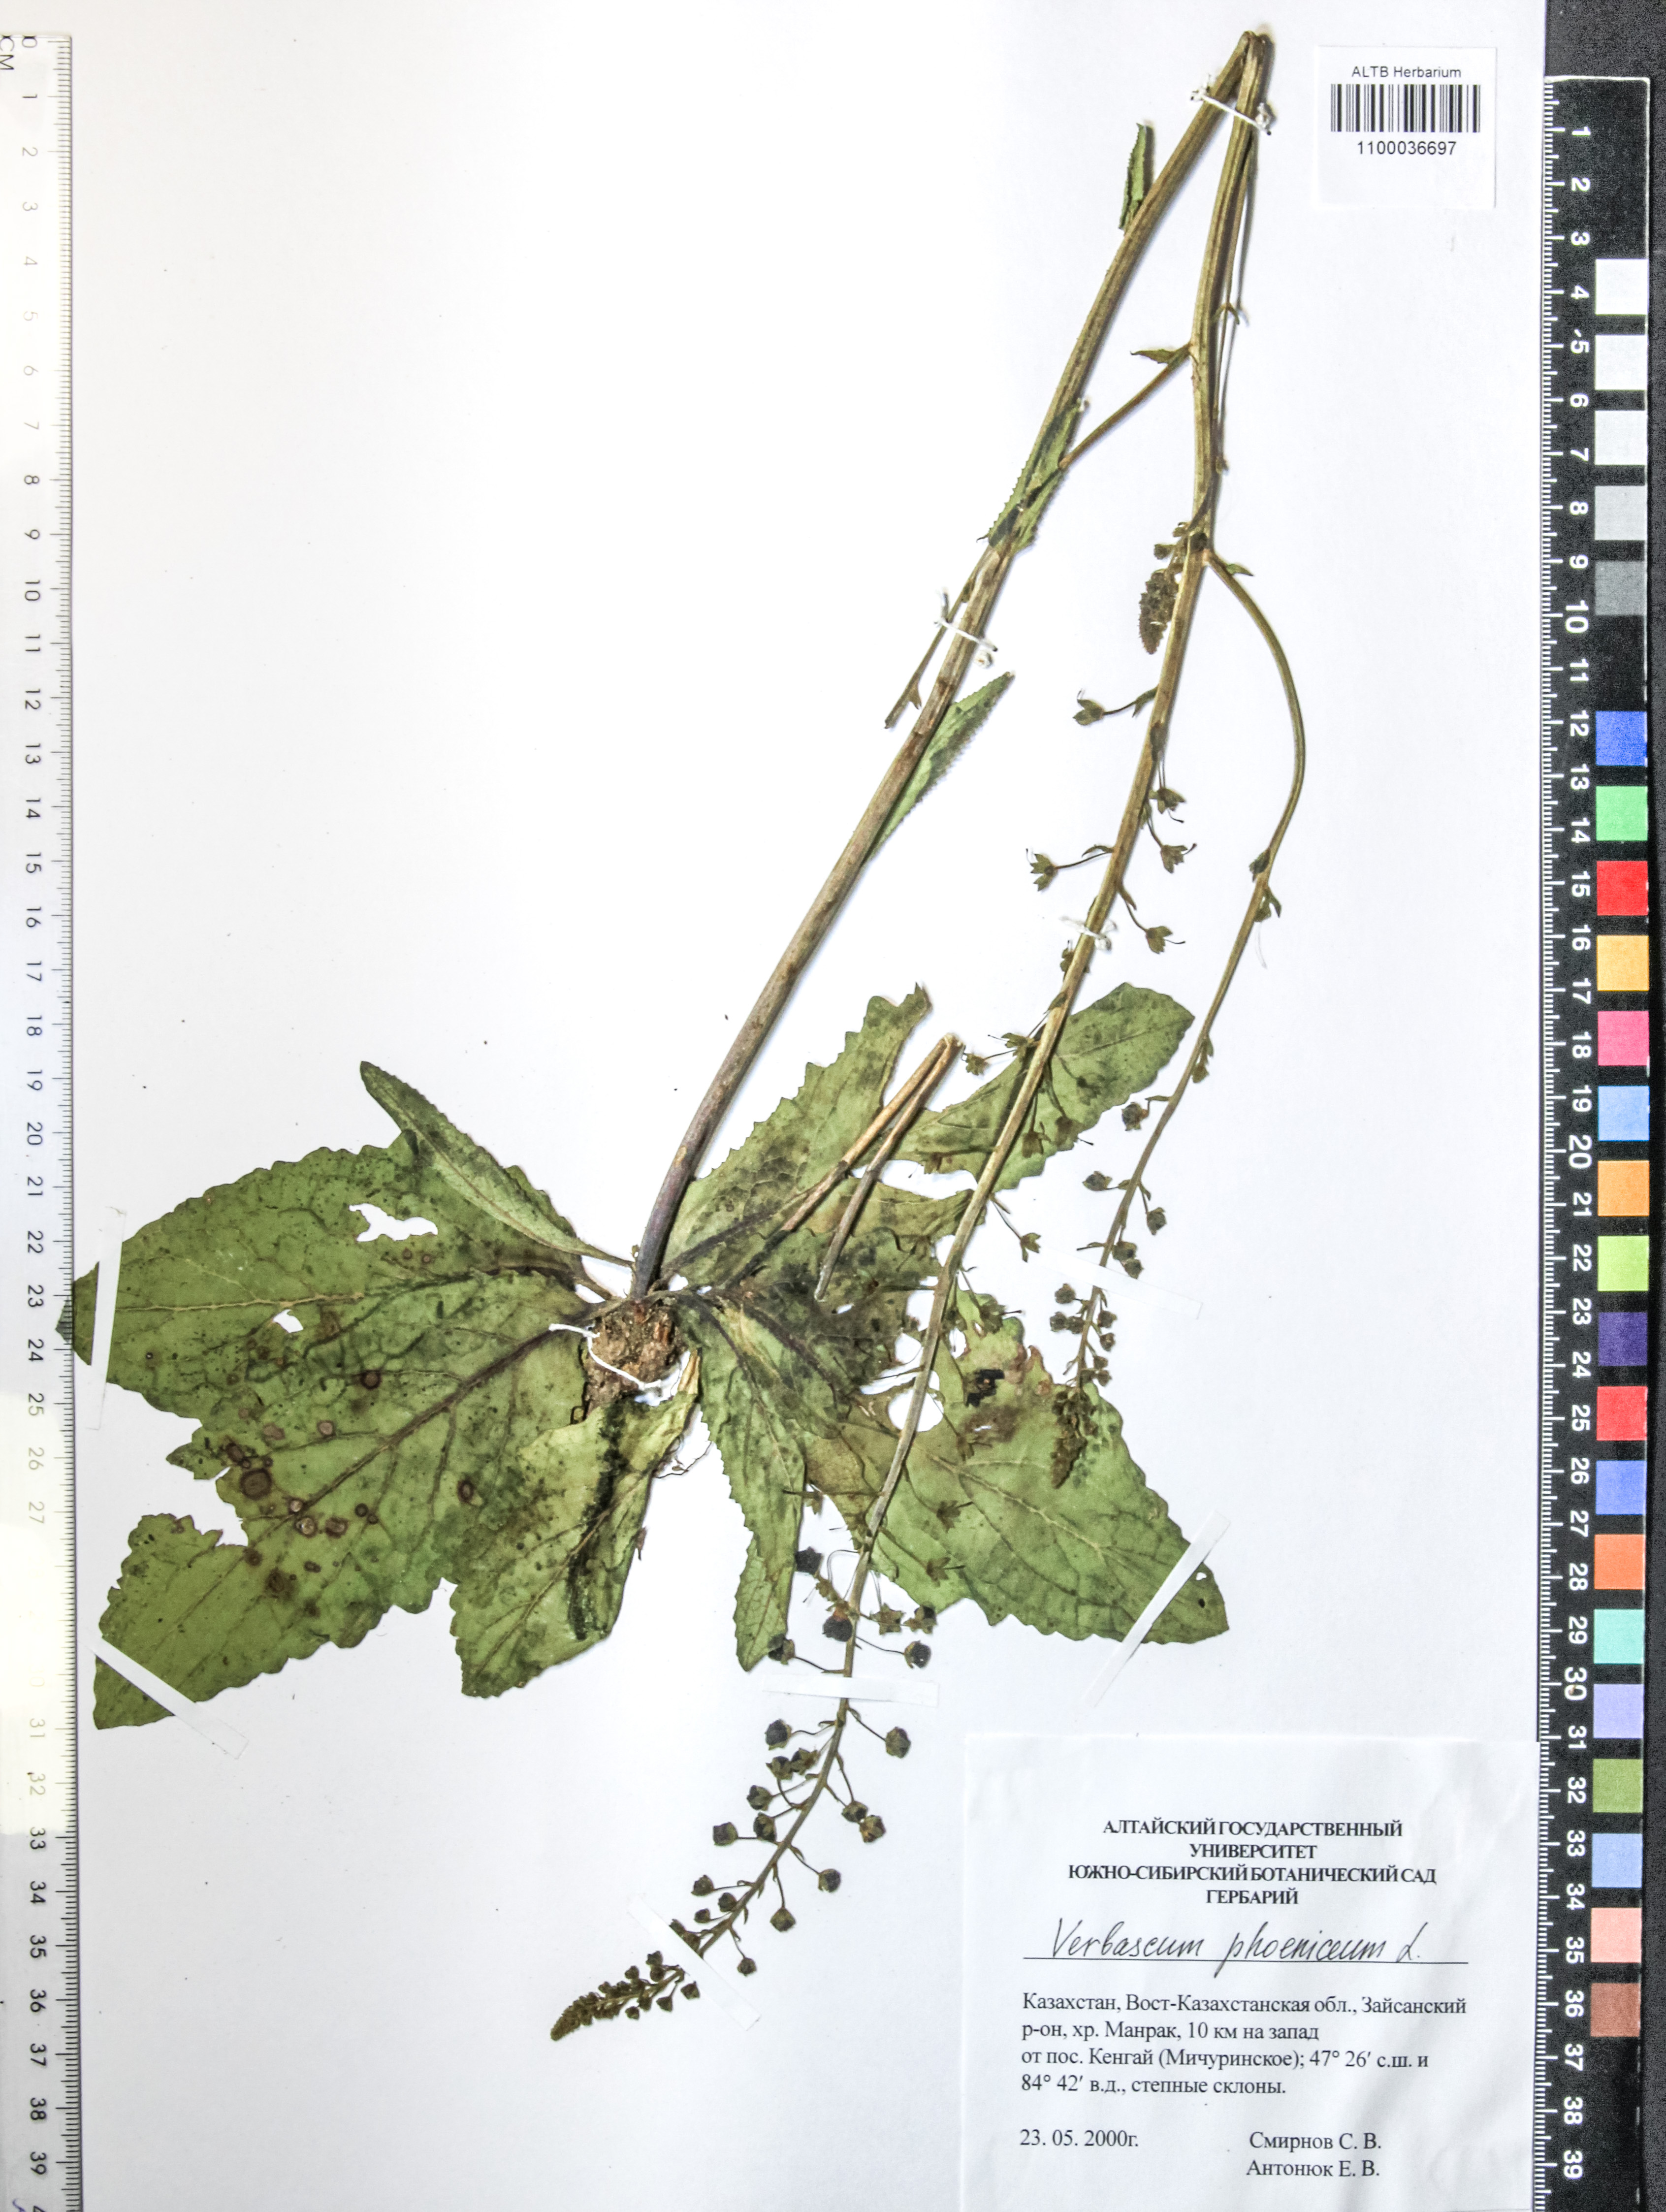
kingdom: Plantae
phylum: Tracheophyta
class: Magnoliopsida
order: Lamiales
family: Scrophulariaceae
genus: Verbascum
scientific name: Verbascum phoeniceum
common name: Purple mullein
